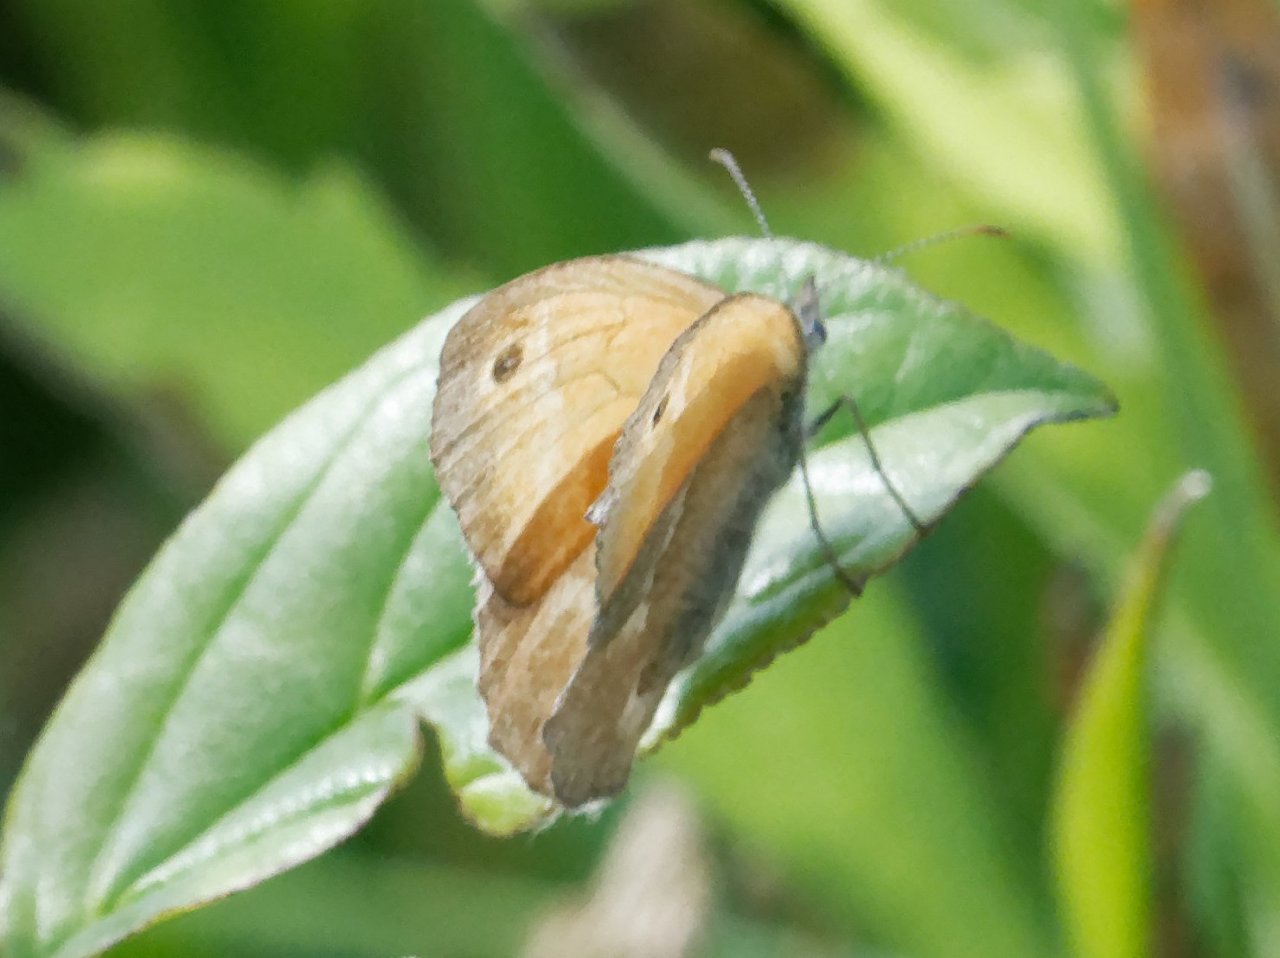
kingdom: Animalia
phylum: Arthropoda
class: Insecta
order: Lepidoptera
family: Nymphalidae
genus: Coenonympha
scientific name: Coenonympha tullia
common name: Large Heath
